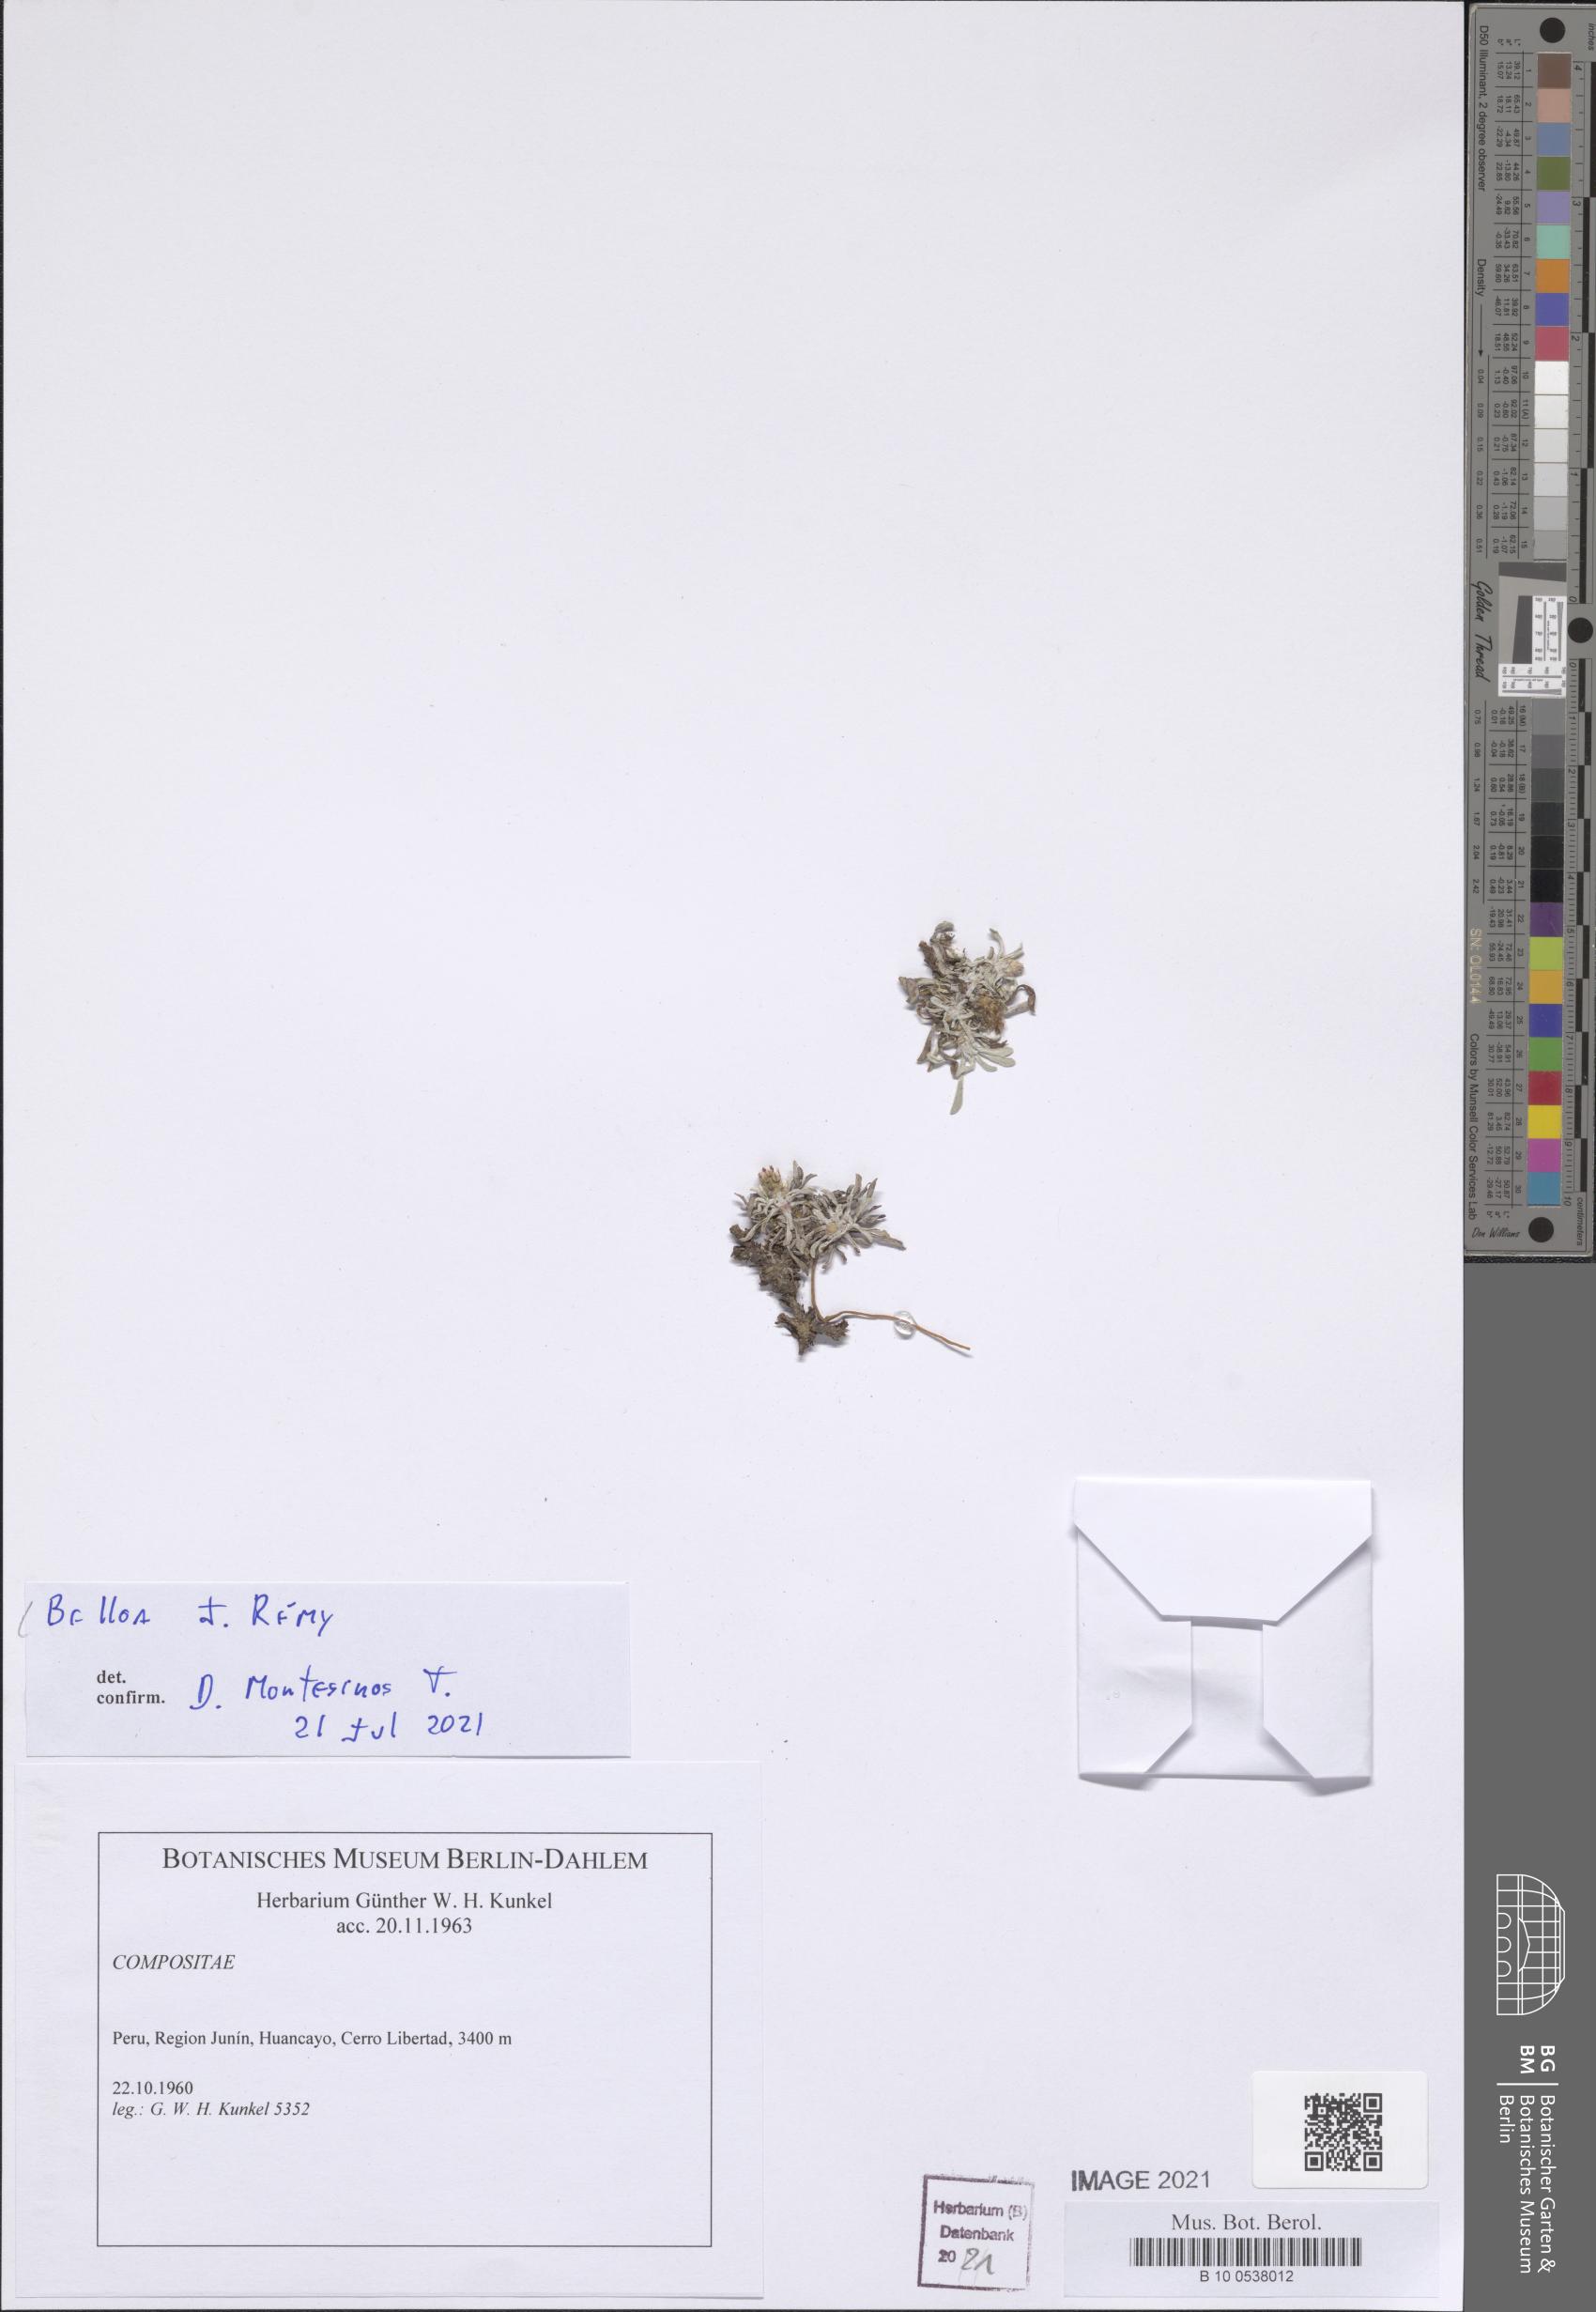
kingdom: Plantae
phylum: Tracheophyta
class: Magnoliopsida
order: Asterales
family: Asteraceae
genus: Belloa
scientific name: Belloa
